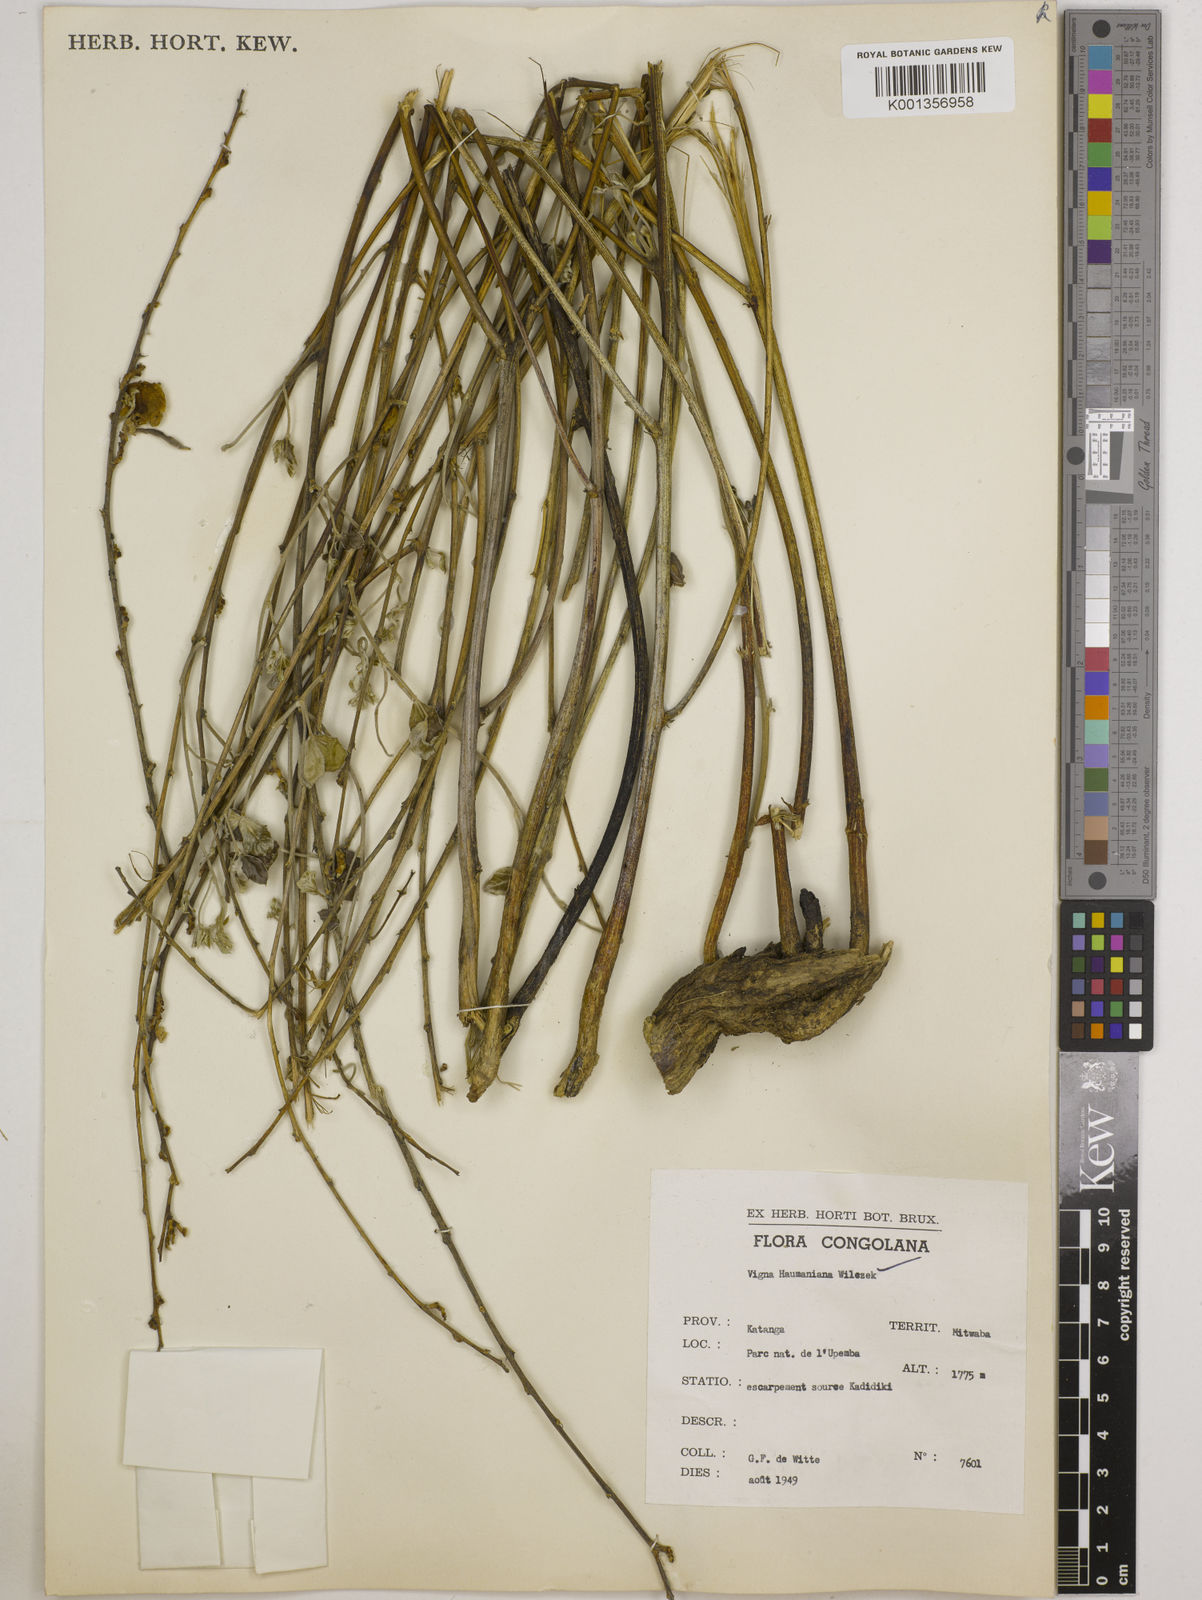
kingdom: Plantae
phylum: Tracheophyta
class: Magnoliopsida
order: Fabales
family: Fabaceae
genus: Vigna
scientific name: Vigna haumaniana
